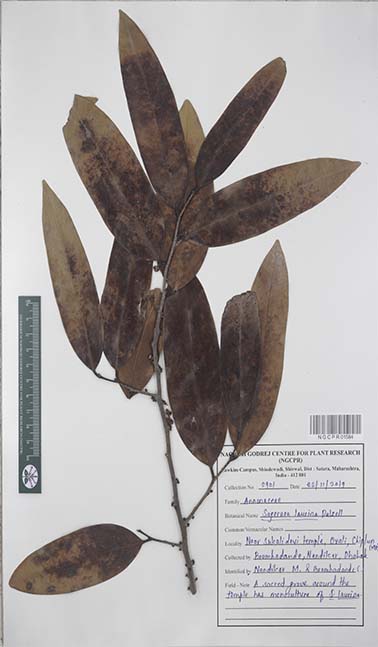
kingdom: Plantae
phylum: Tracheophyta
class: Magnoliopsida
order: Magnoliales
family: Annonaceae
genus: Sageraea
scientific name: Sageraea laurina
